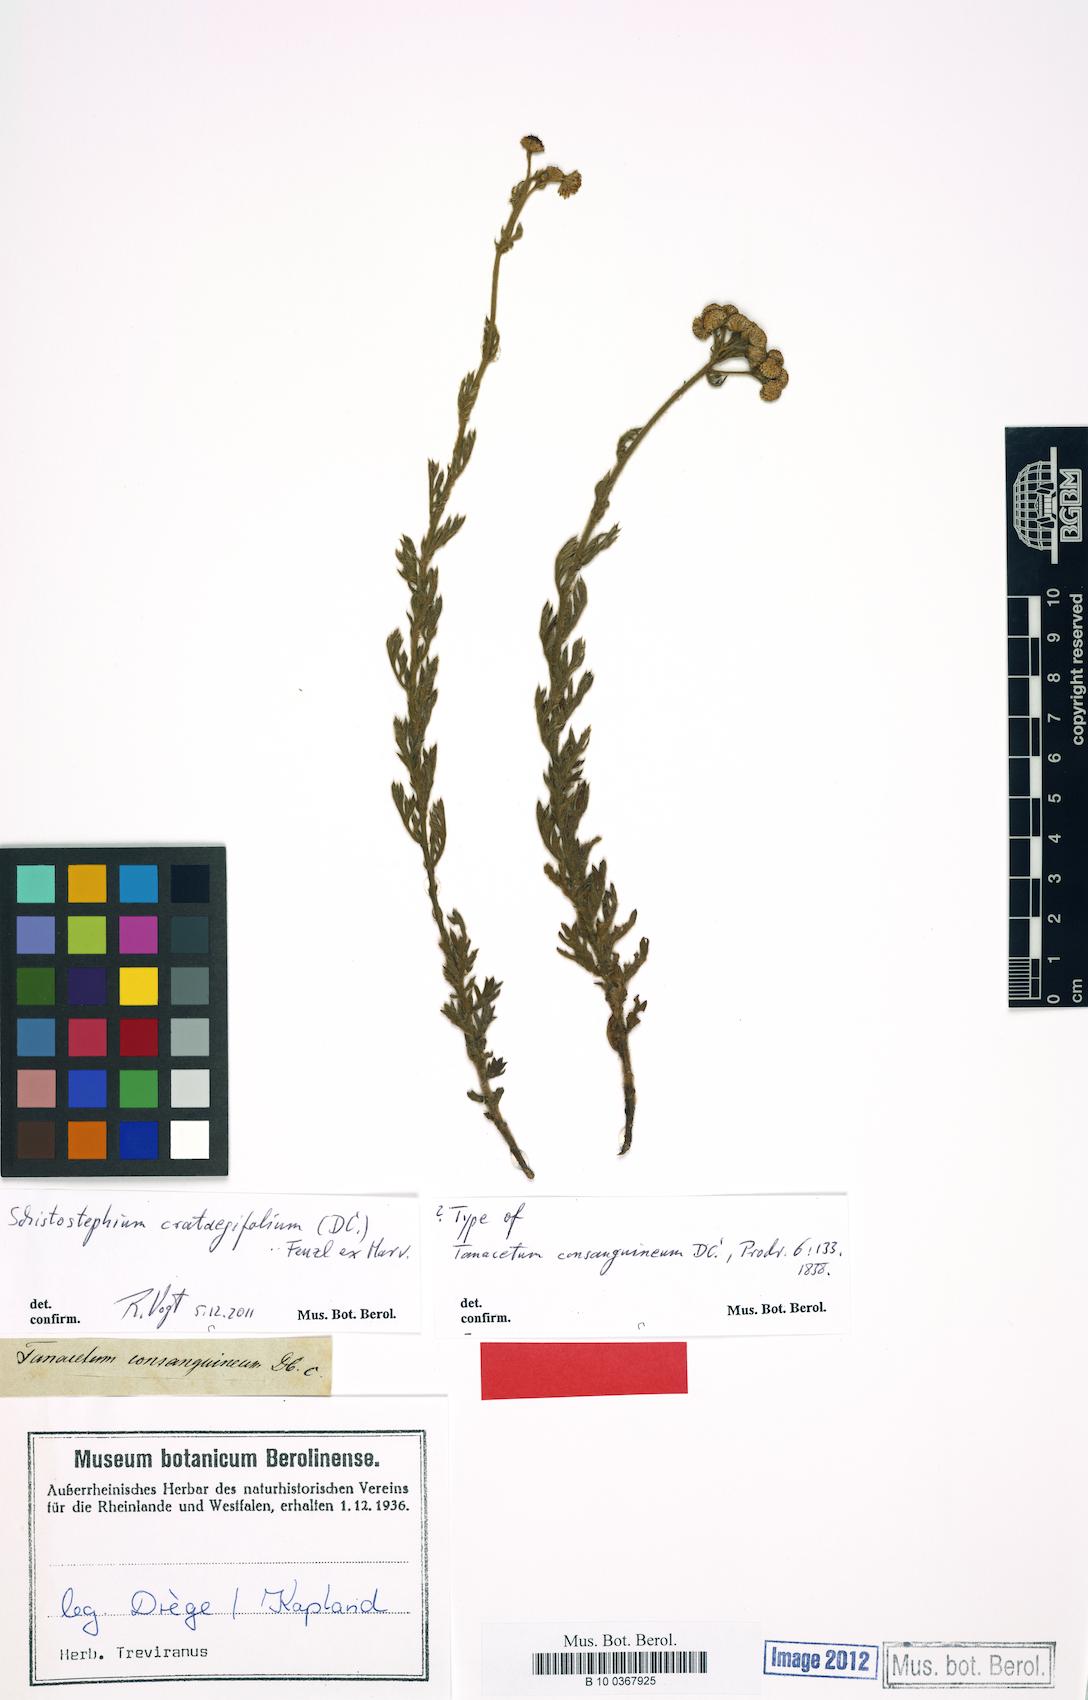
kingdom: Plantae
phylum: Tracheophyta
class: Magnoliopsida
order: Asterales
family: Asteraceae
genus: Schistostephium
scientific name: Schistostephium crataegifolium
